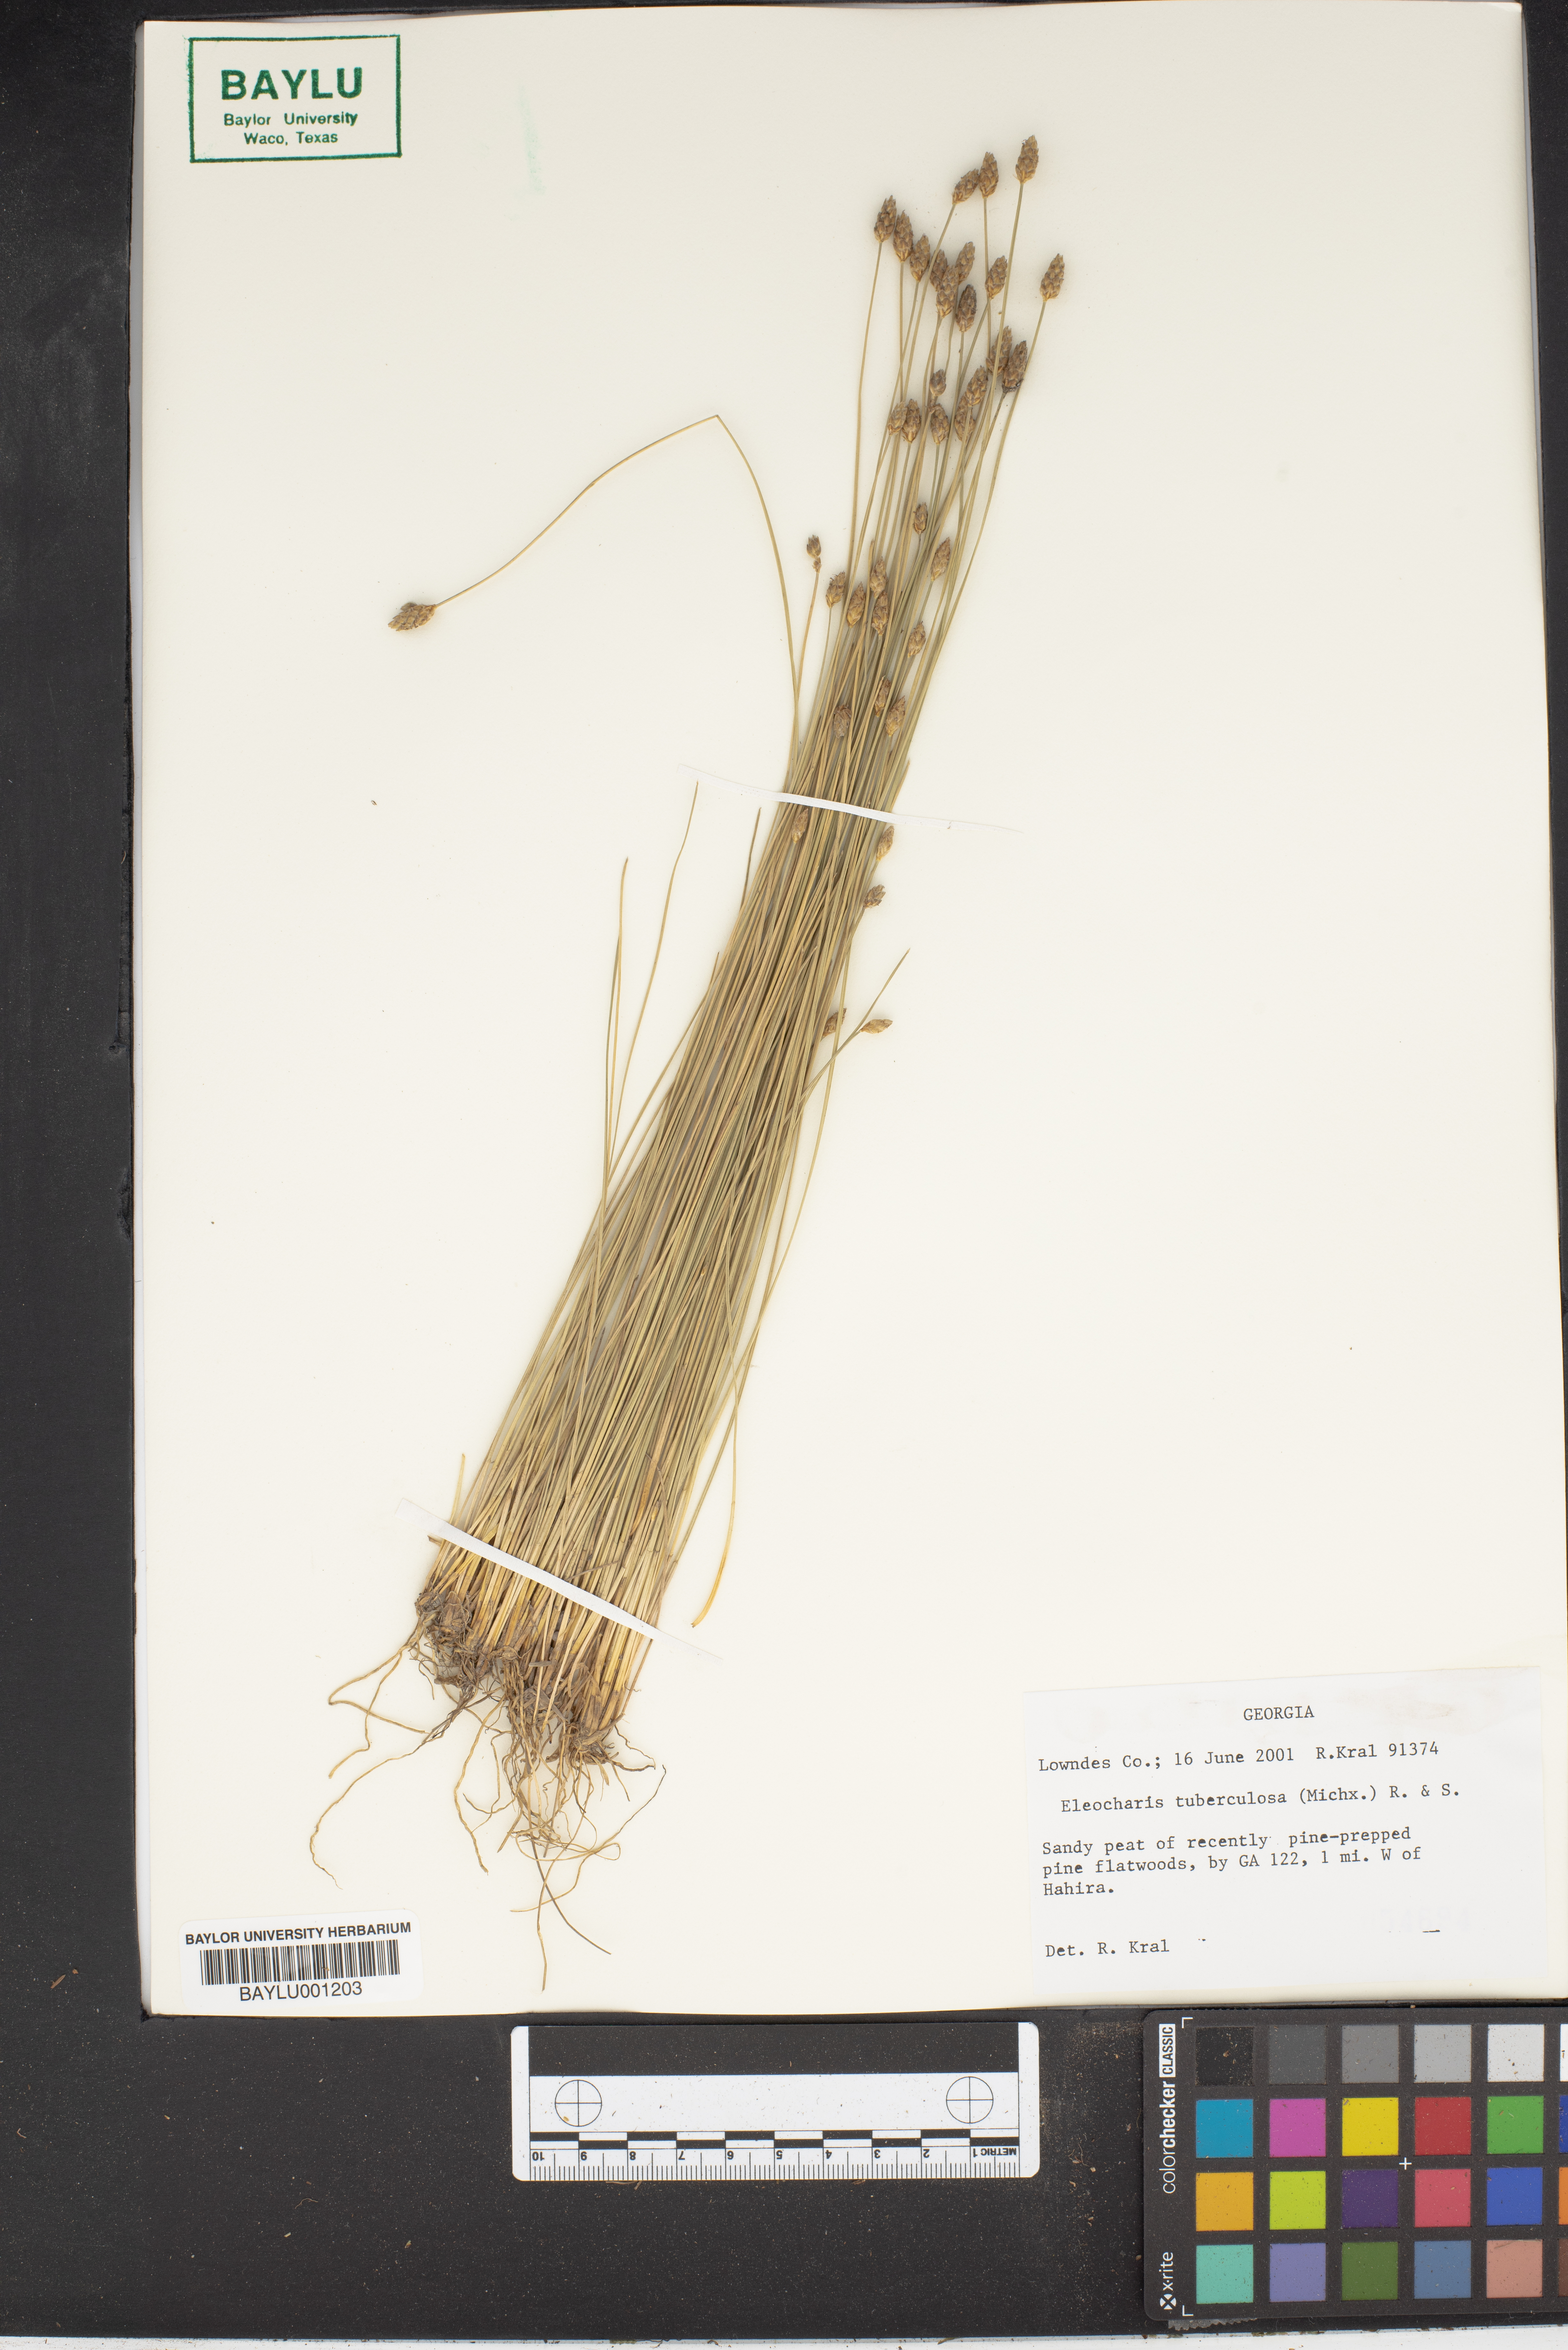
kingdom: Plantae
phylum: Tracheophyta
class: Liliopsida
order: Poales
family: Cyperaceae
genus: Eleocharis
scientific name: Eleocharis tuberculosa
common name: Cone-cup spikerush
